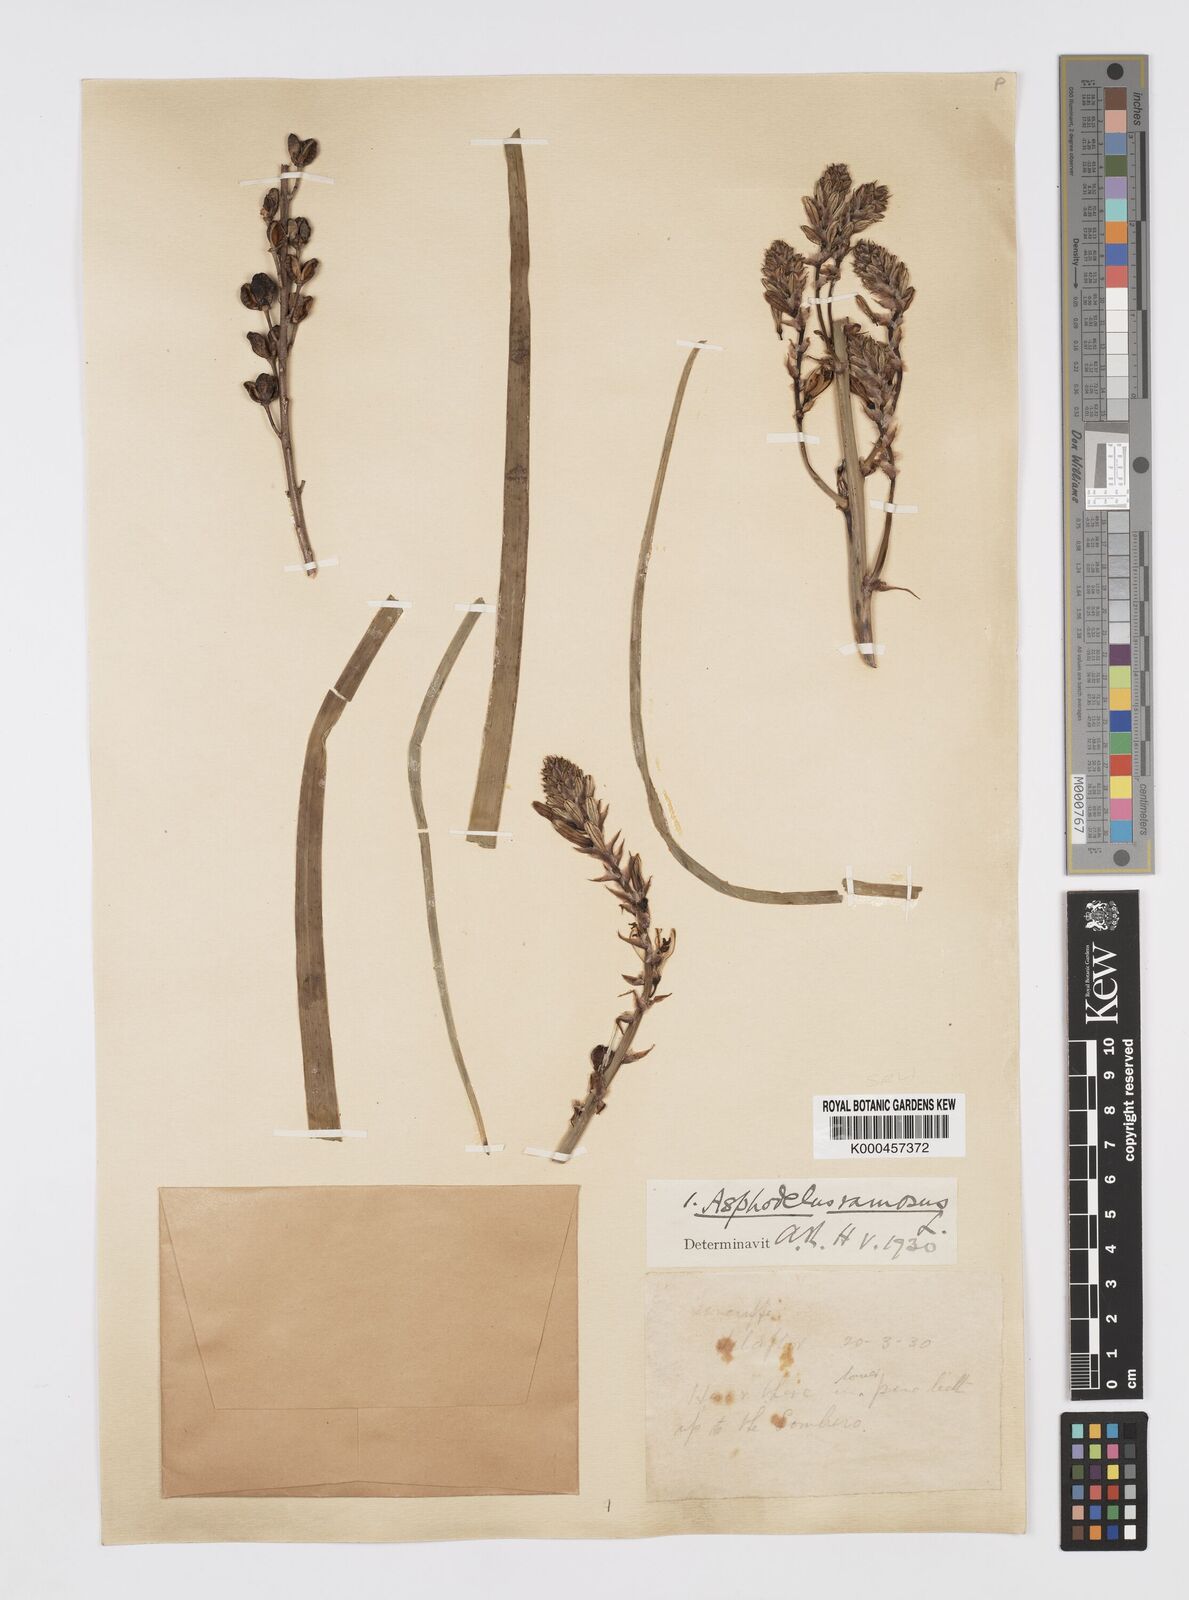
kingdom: Plantae
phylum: Tracheophyta
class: Liliopsida
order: Asparagales
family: Asphodelaceae
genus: Asphodelus
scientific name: Asphodelus aestivus
